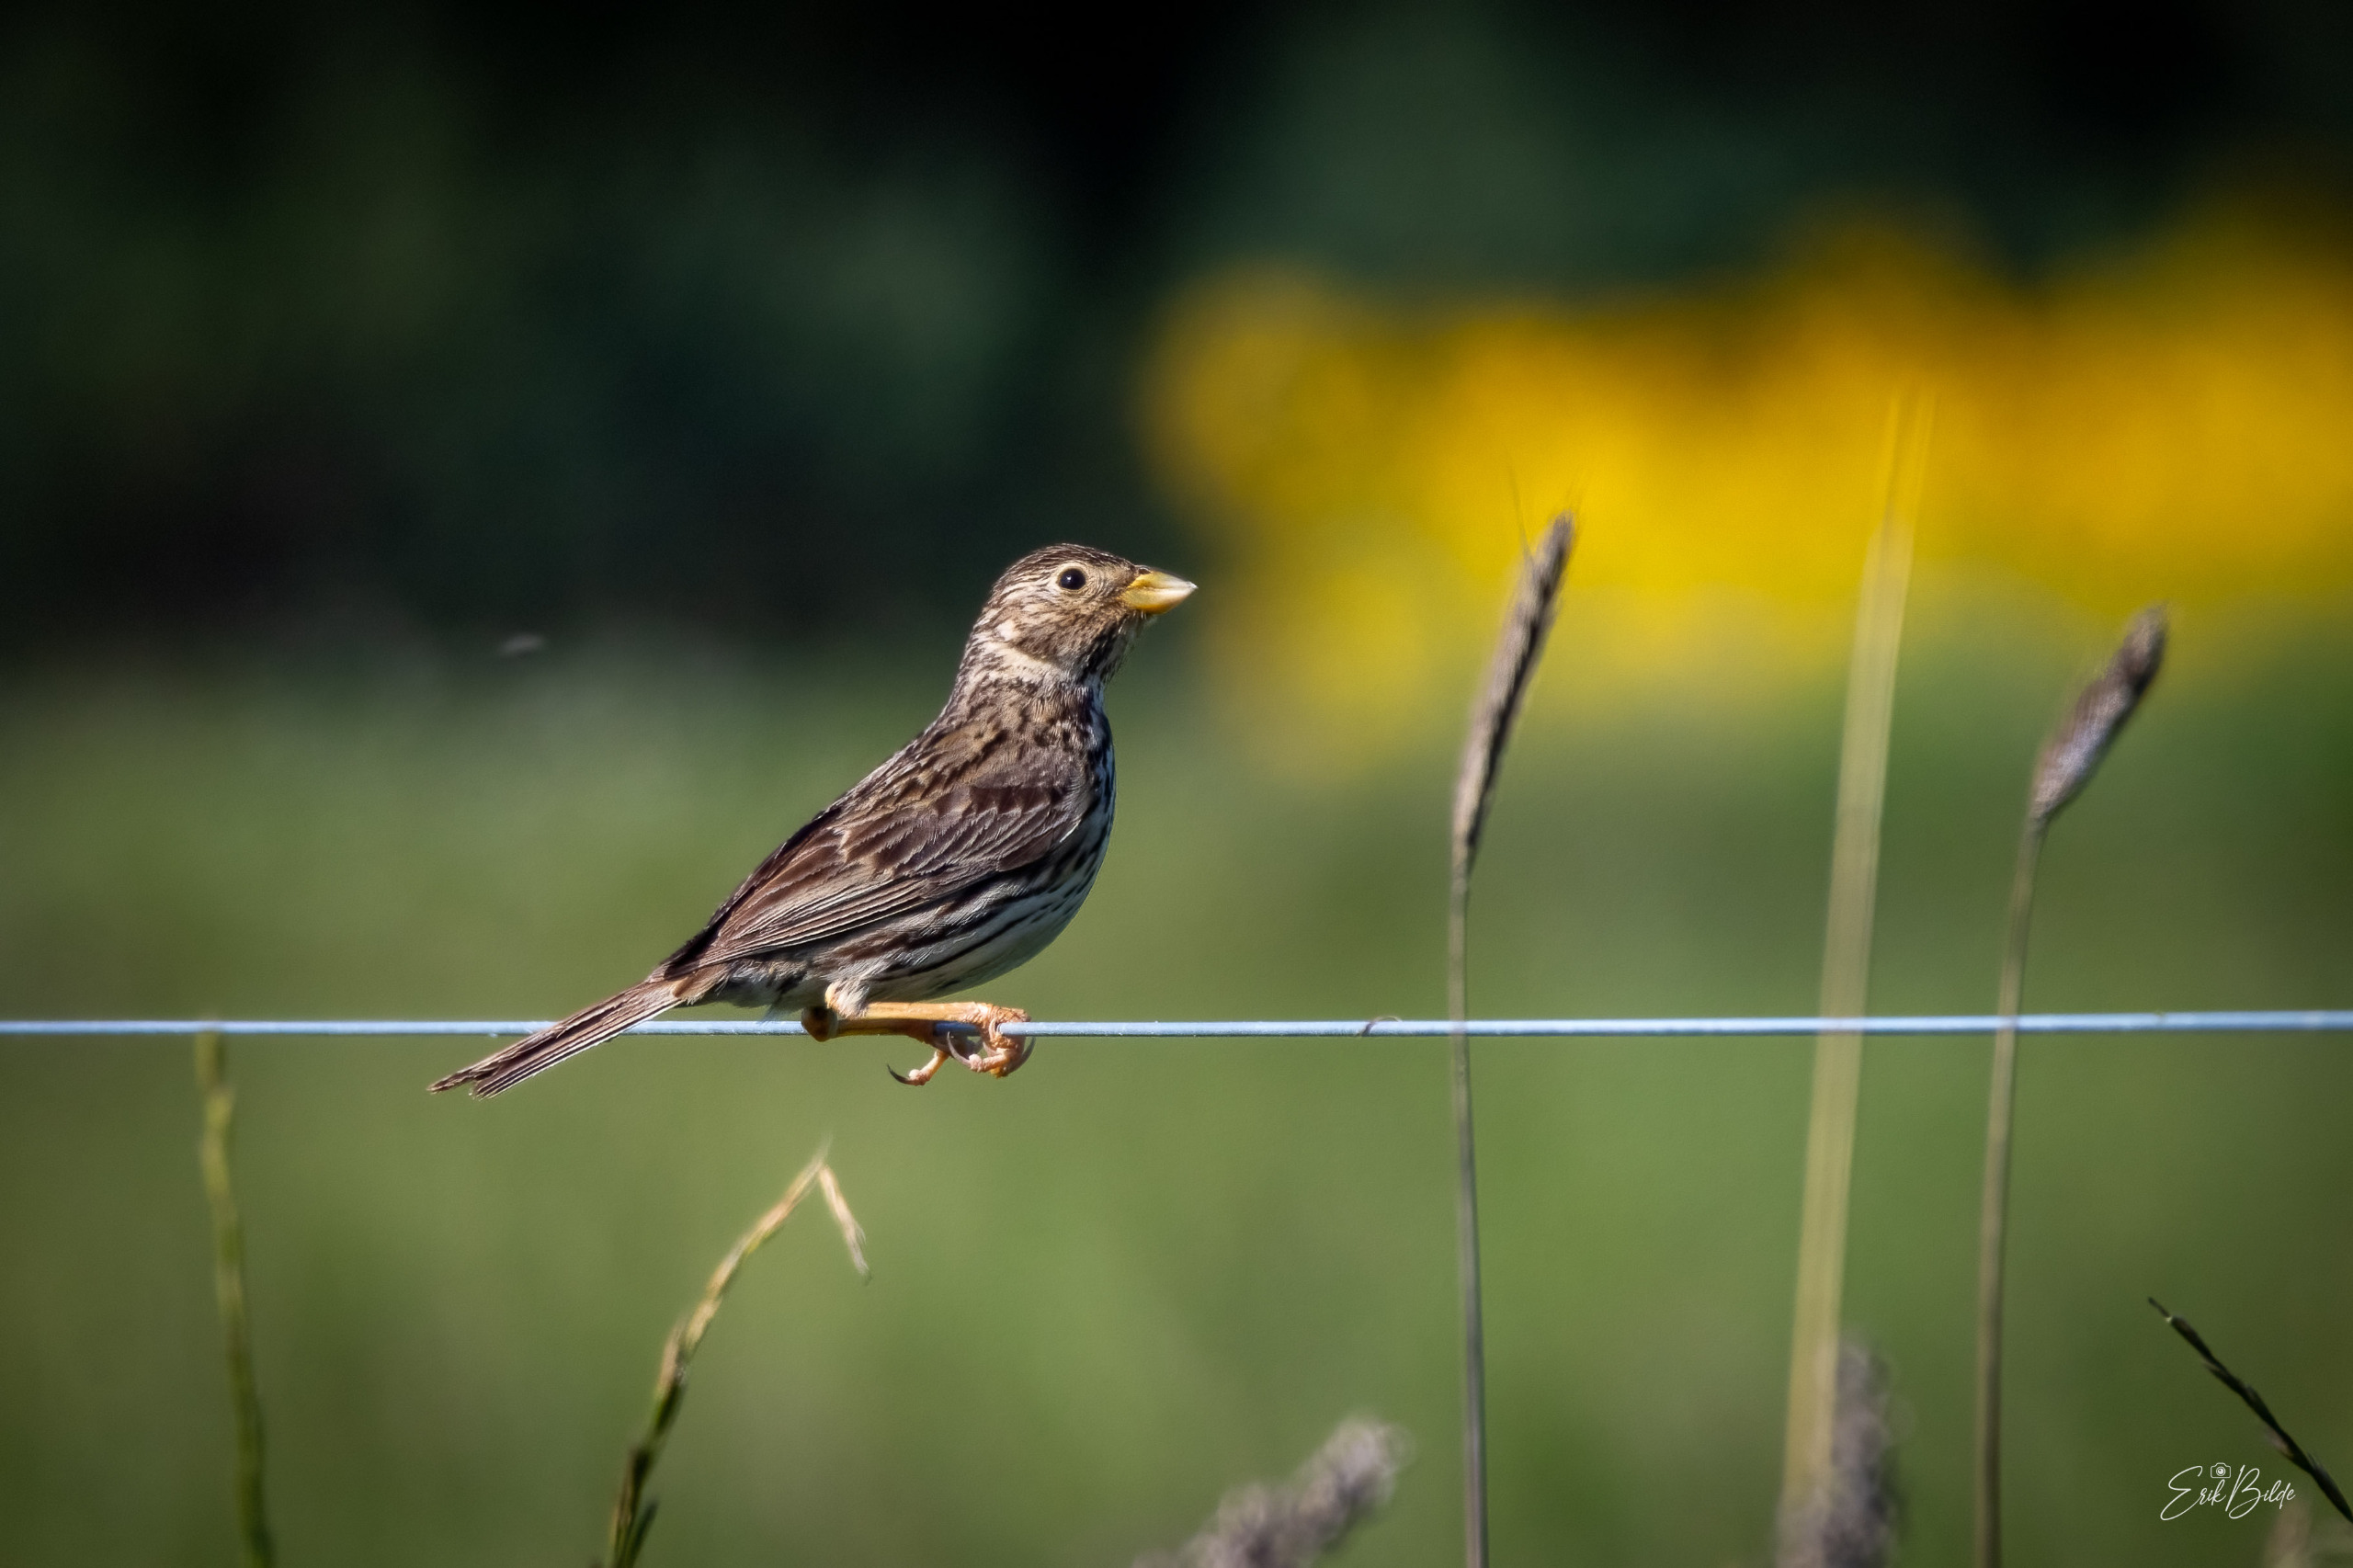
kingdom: Animalia
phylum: Chordata
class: Aves
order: Passeriformes
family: Emberizidae
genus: Emberiza
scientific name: Emberiza calandra
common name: Bomlærke
